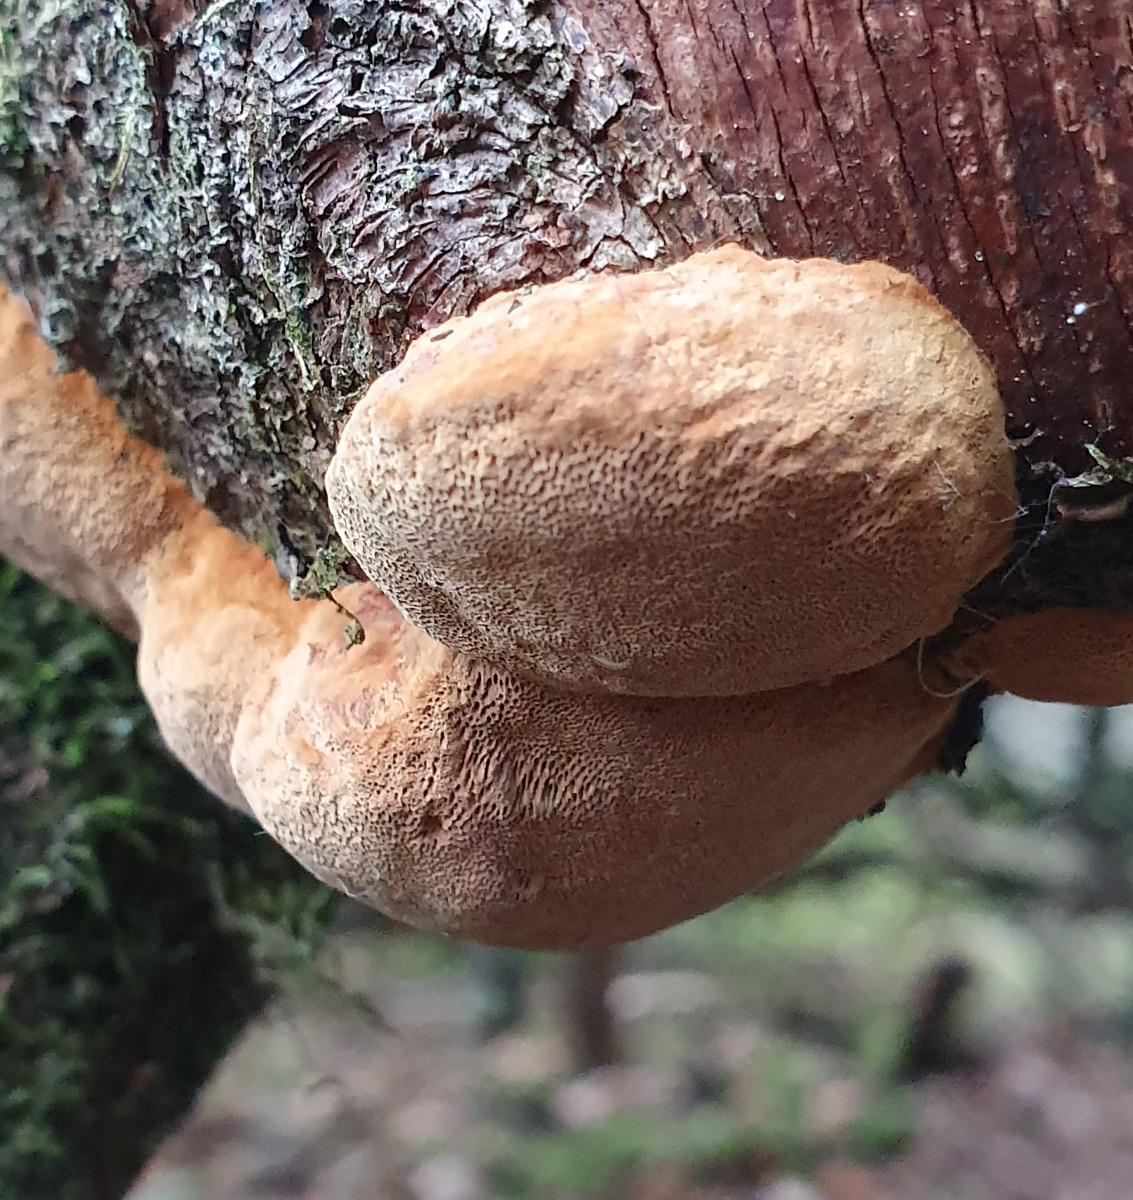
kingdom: Fungi
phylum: Basidiomycota
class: Agaricomycetes
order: Hymenochaetales
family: Hymenochaetaceae
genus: Phellinus
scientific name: Phellinus pomaceus
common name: blomme-ildporesvamp
